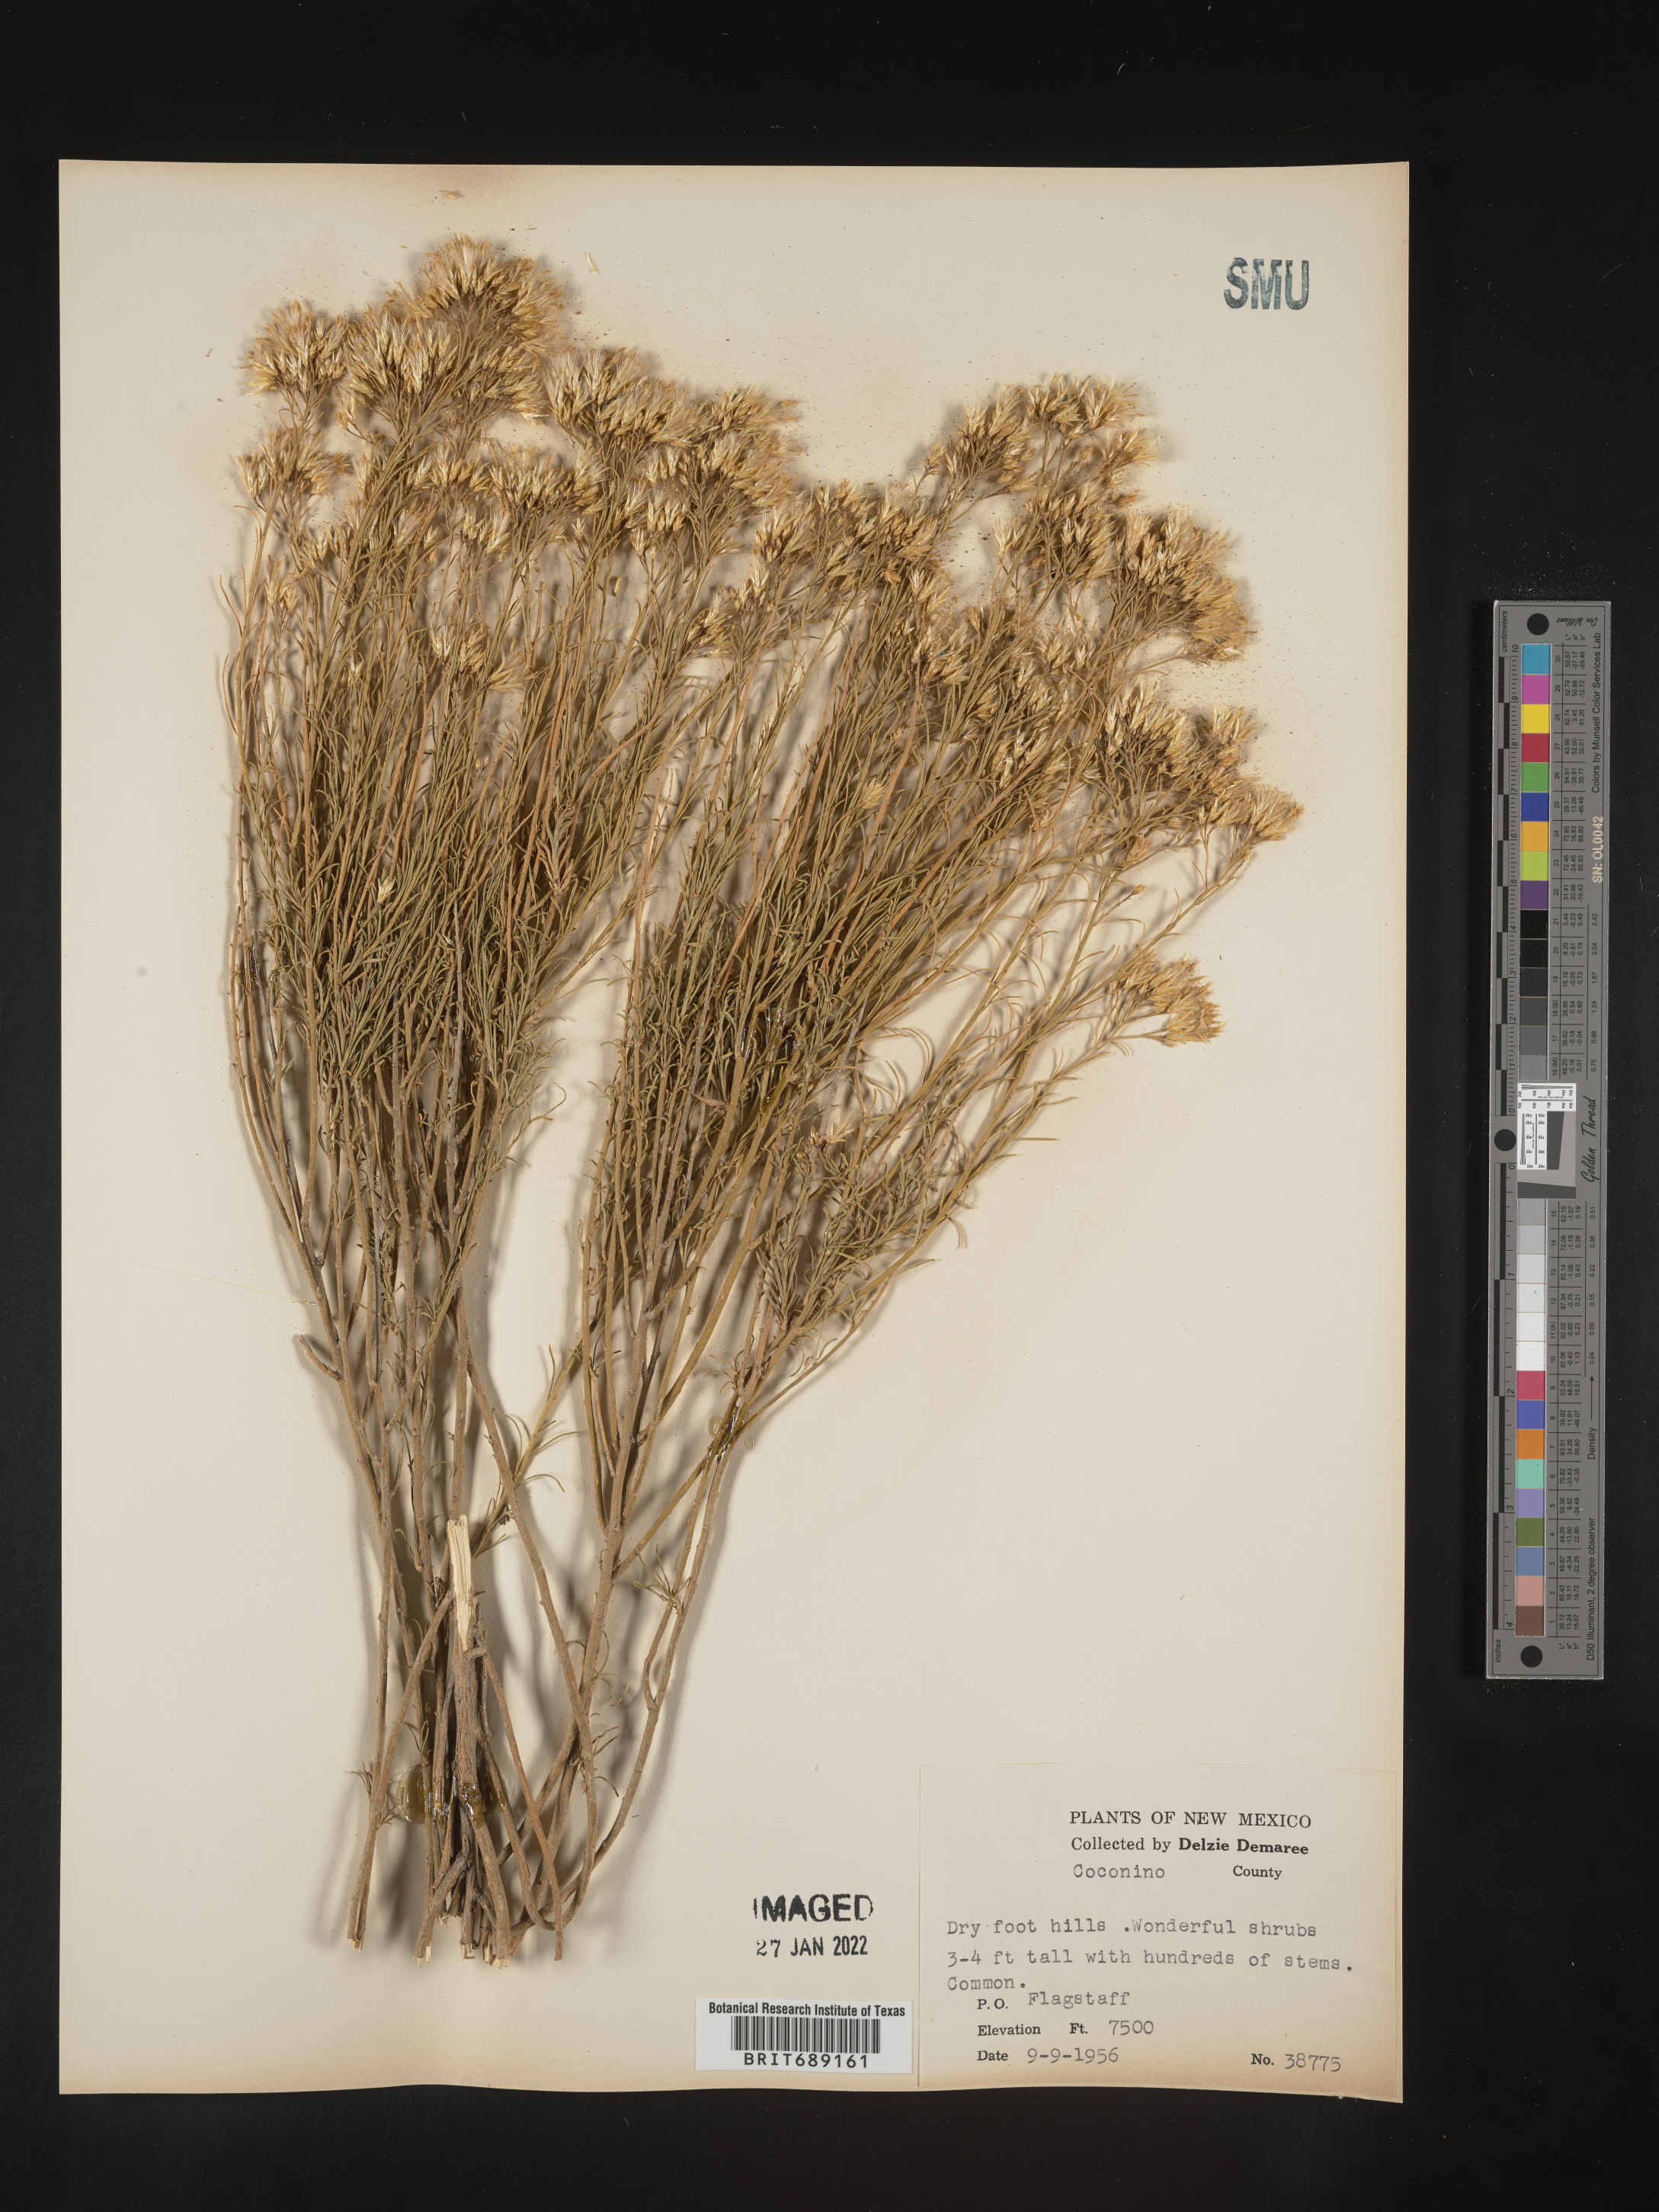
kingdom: Plantae
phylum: Tracheophyta
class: Magnoliopsida
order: Asterales
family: Asteraceae
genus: Chrysothamnus
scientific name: Chrysothamnus
